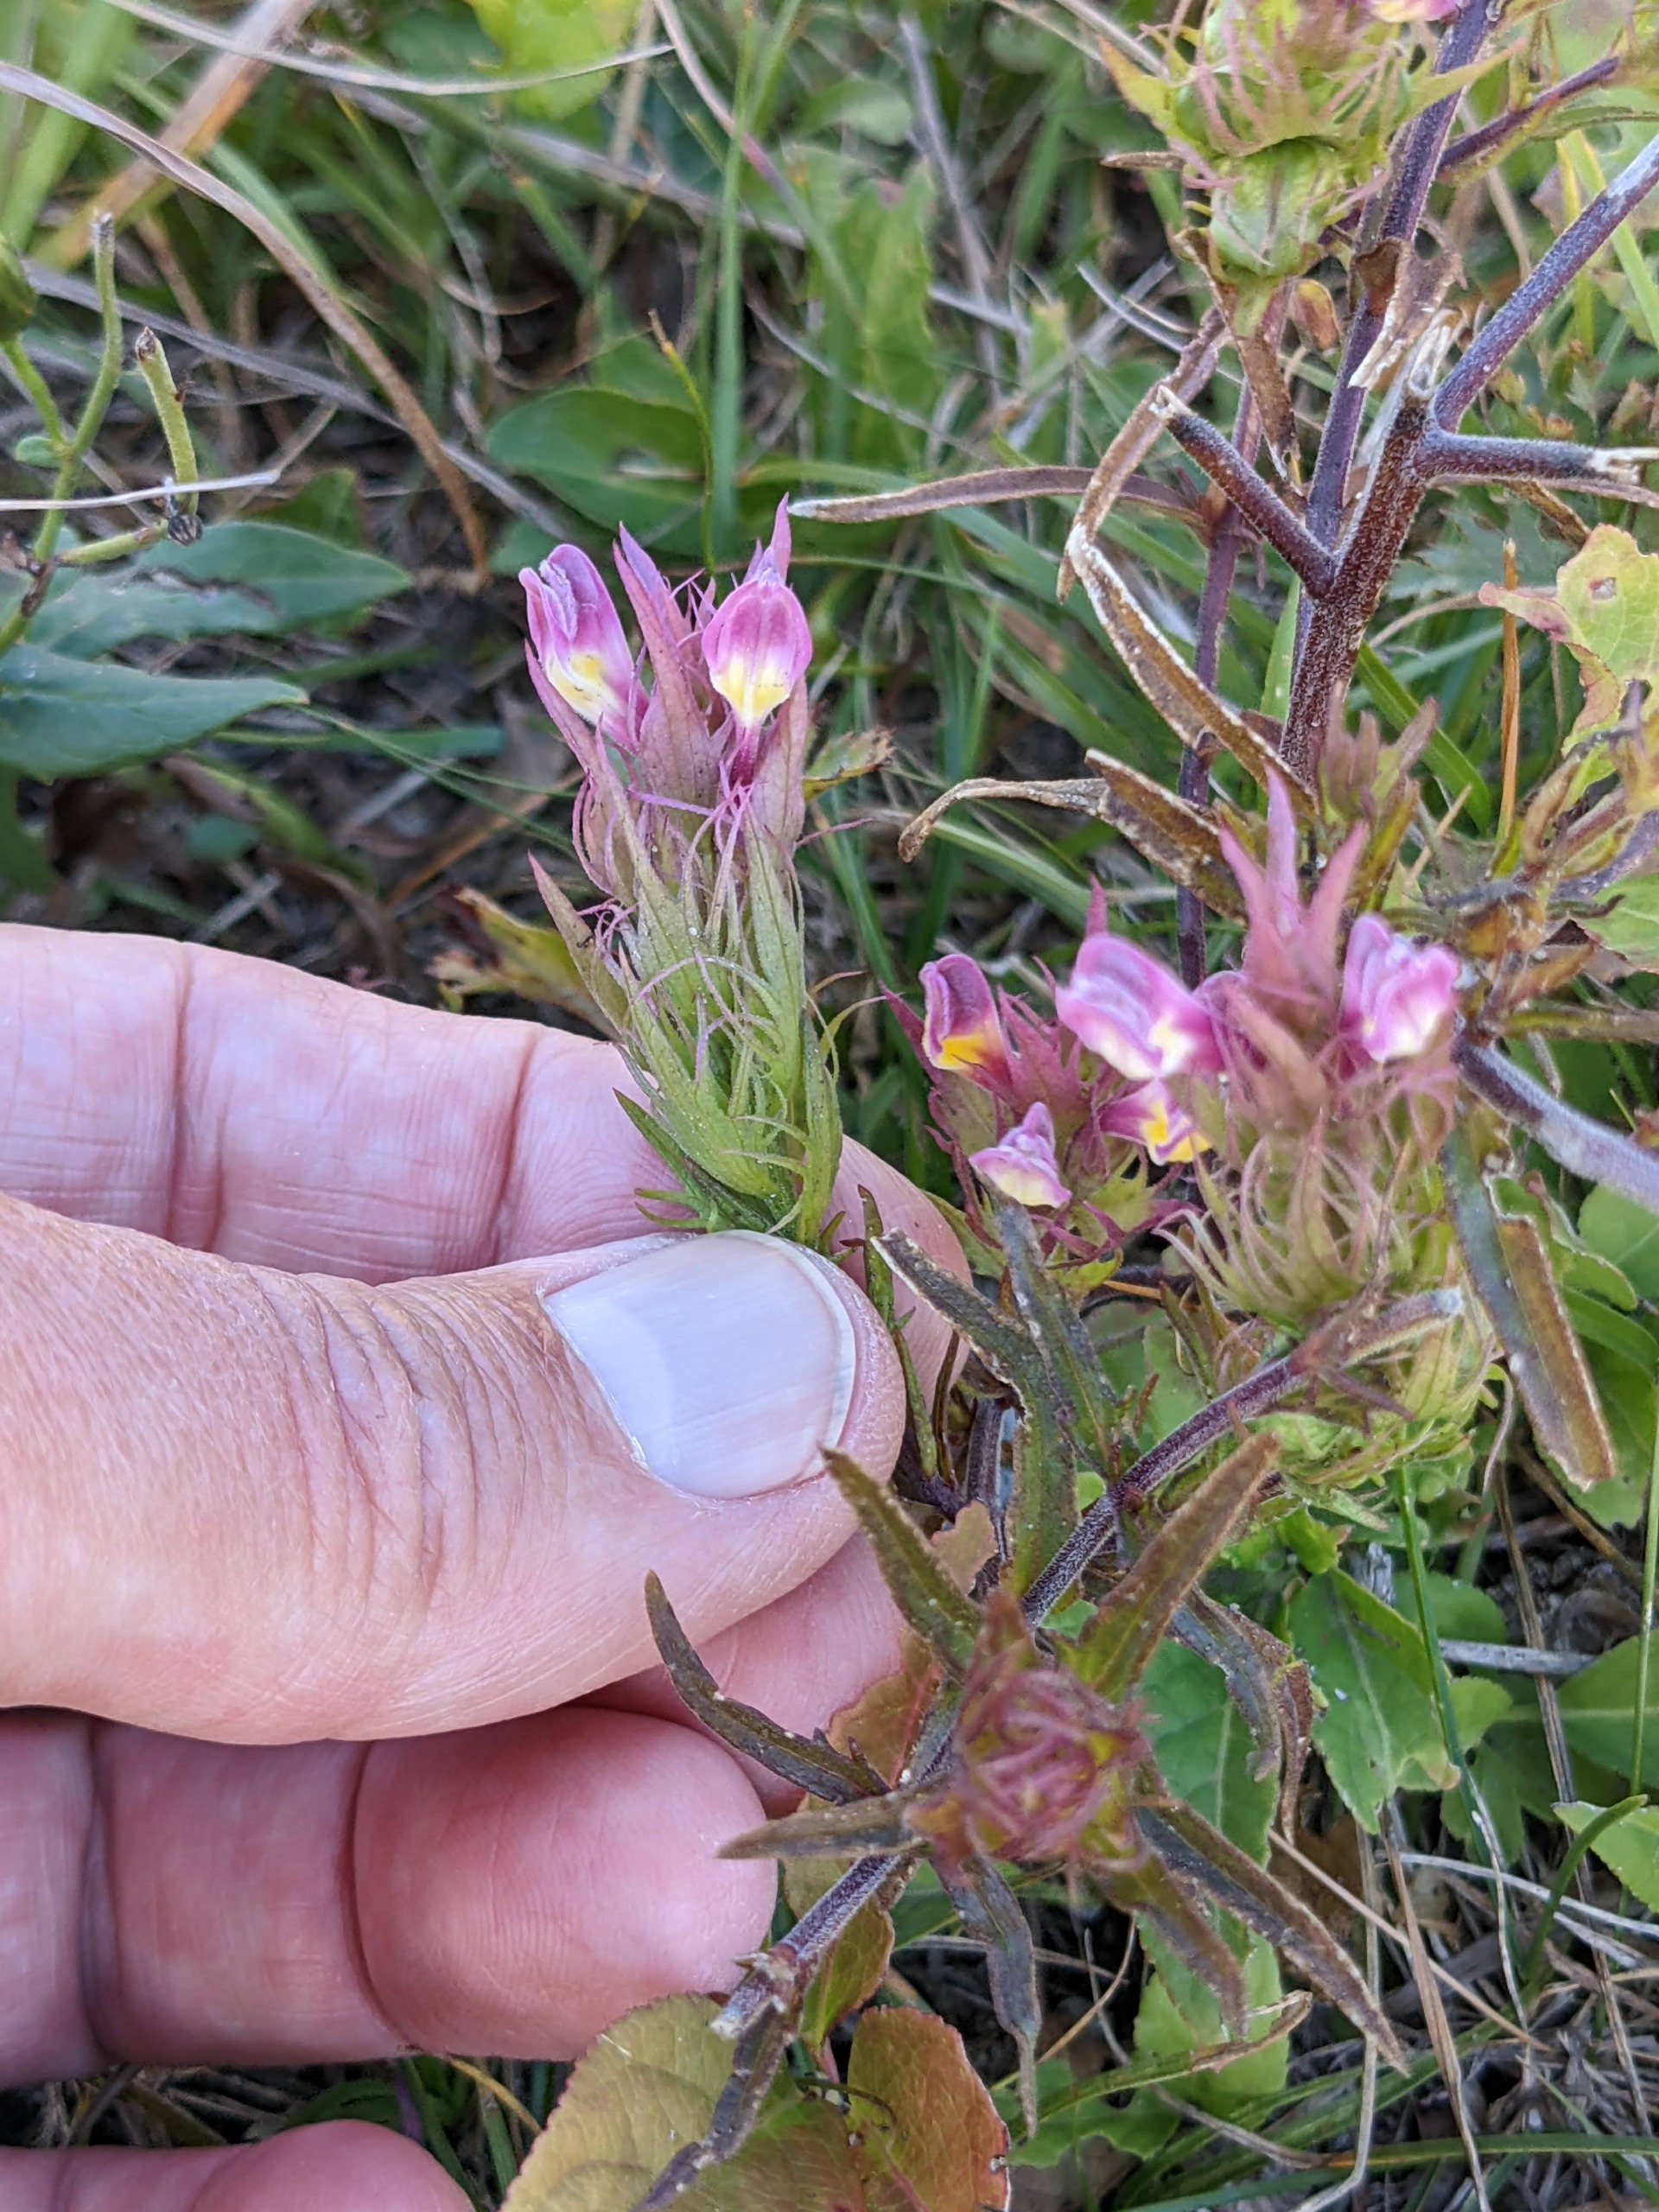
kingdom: Plantae
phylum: Tracheophyta
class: Magnoliopsida
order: Lamiales
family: Orobanchaceae
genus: Melampyrum
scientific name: Melampyrum arvense
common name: Ager-kohvede
